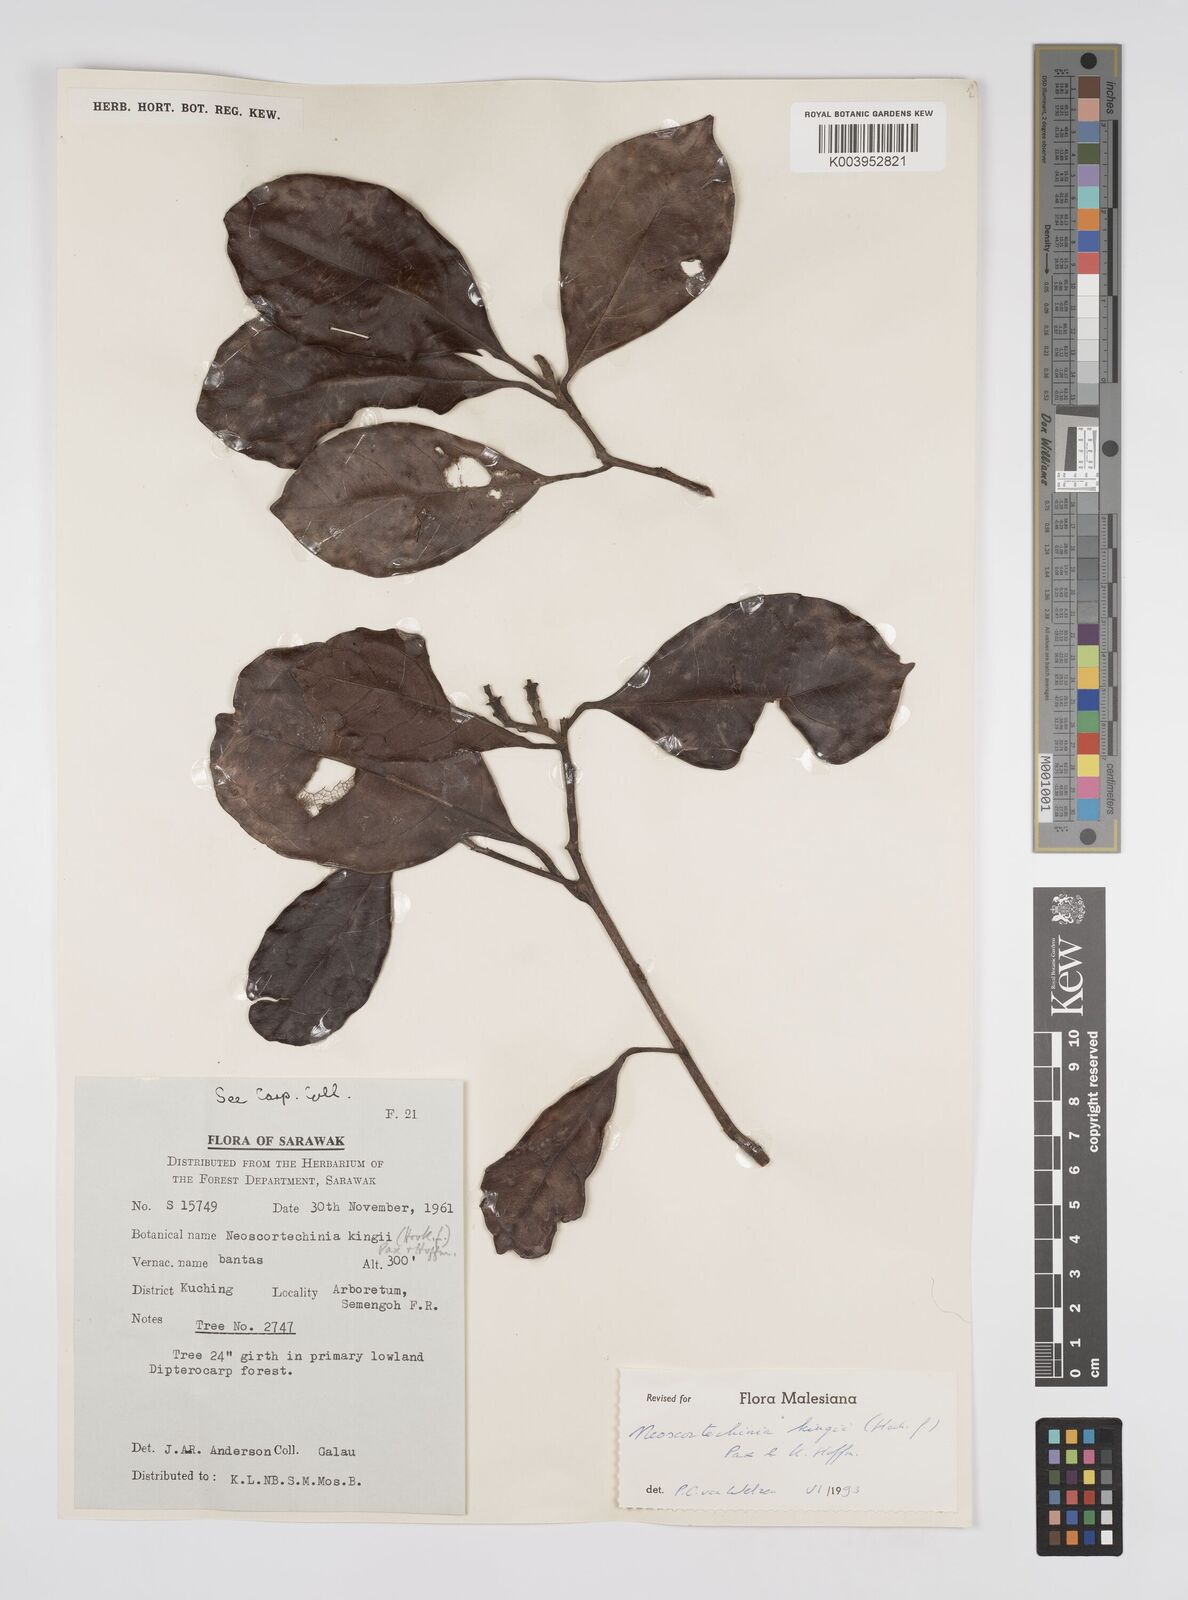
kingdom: Plantae
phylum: Tracheophyta
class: Magnoliopsida
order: Malpighiales
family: Euphorbiaceae
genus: Neoscortechinia
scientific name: Neoscortechinia kingii
